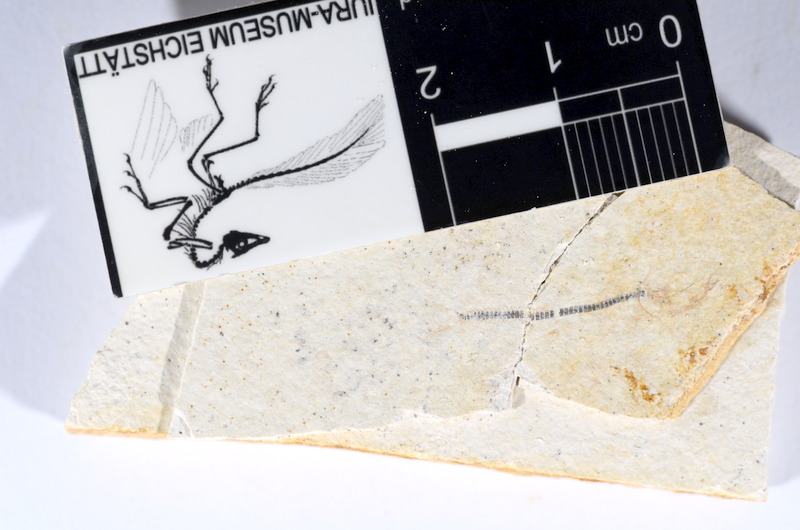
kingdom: Animalia
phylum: Chordata
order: Salmoniformes
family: Orthogonikleithridae
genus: Orthogonikleithrus
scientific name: Orthogonikleithrus hoelli
